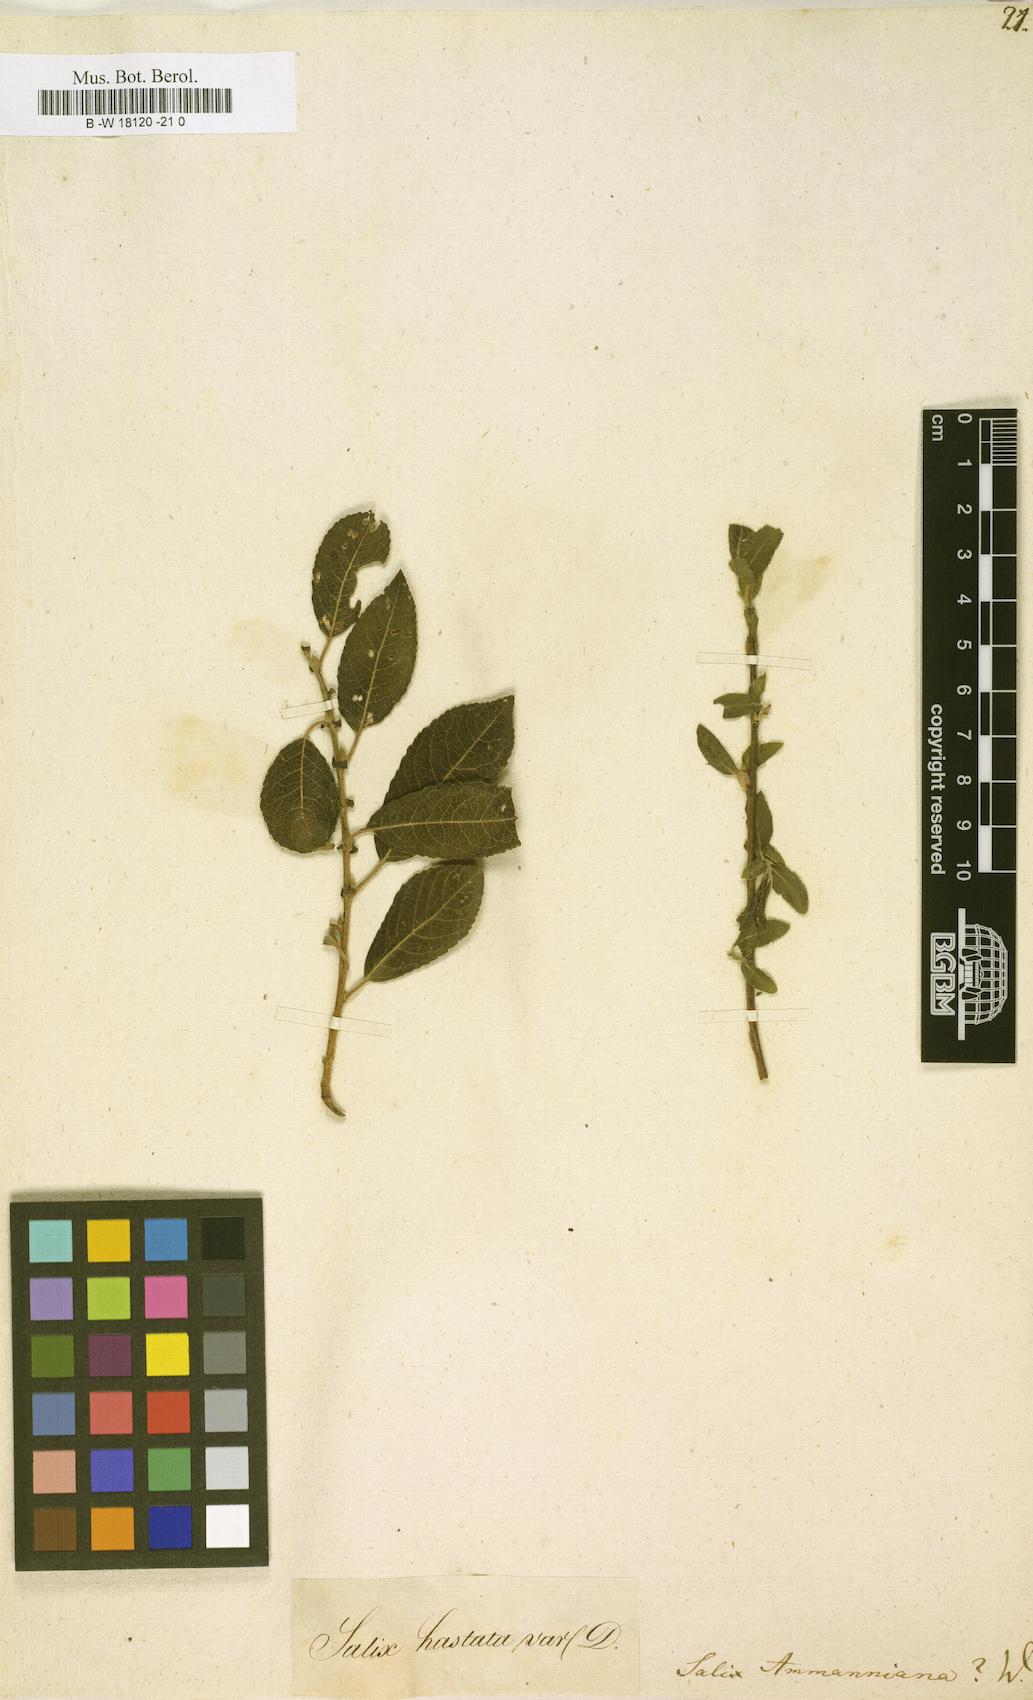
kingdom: Plantae
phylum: Tracheophyta
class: Magnoliopsida
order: Malpighiales
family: Salicaceae
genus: Salix
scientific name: Salix myrsinifolia
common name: Dark-leaved willow
